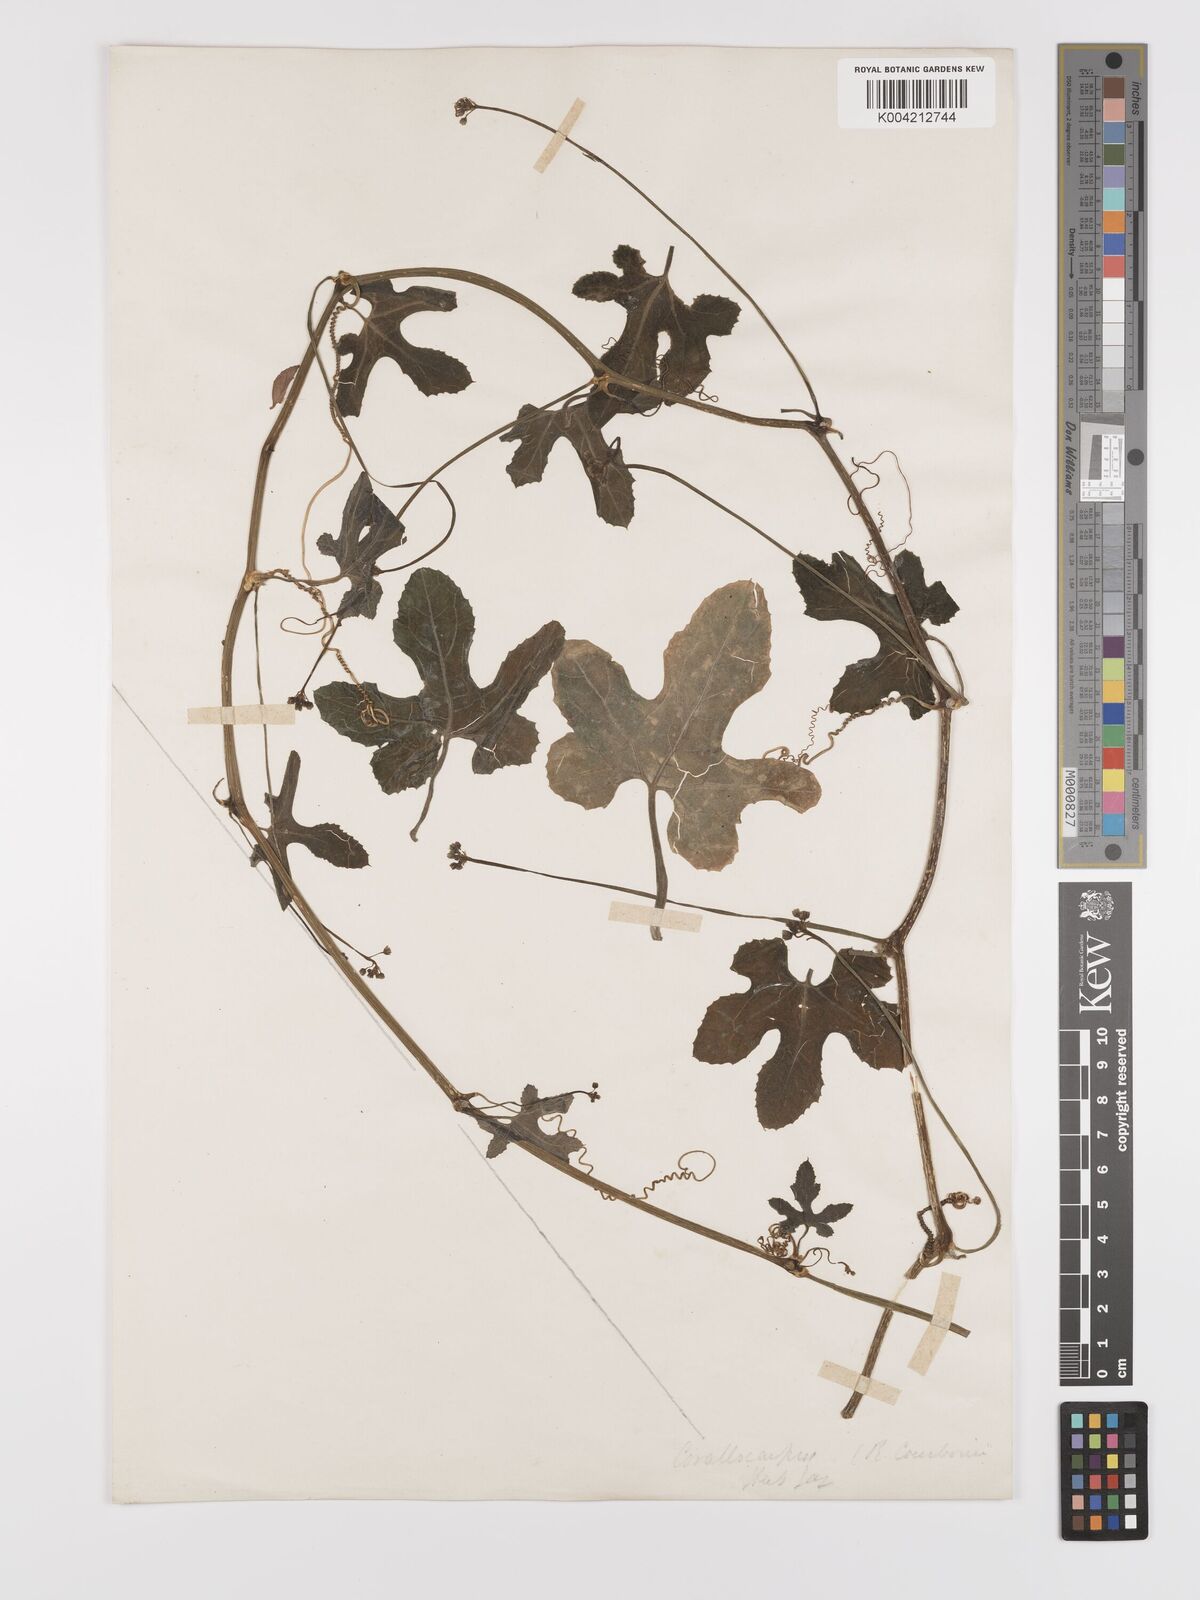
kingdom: Plantae
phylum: Tracheophyta
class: Magnoliopsida
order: Cucurbitales
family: Cucurbitaceae
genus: Corallocarpus
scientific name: Corallocarpus schimperi
